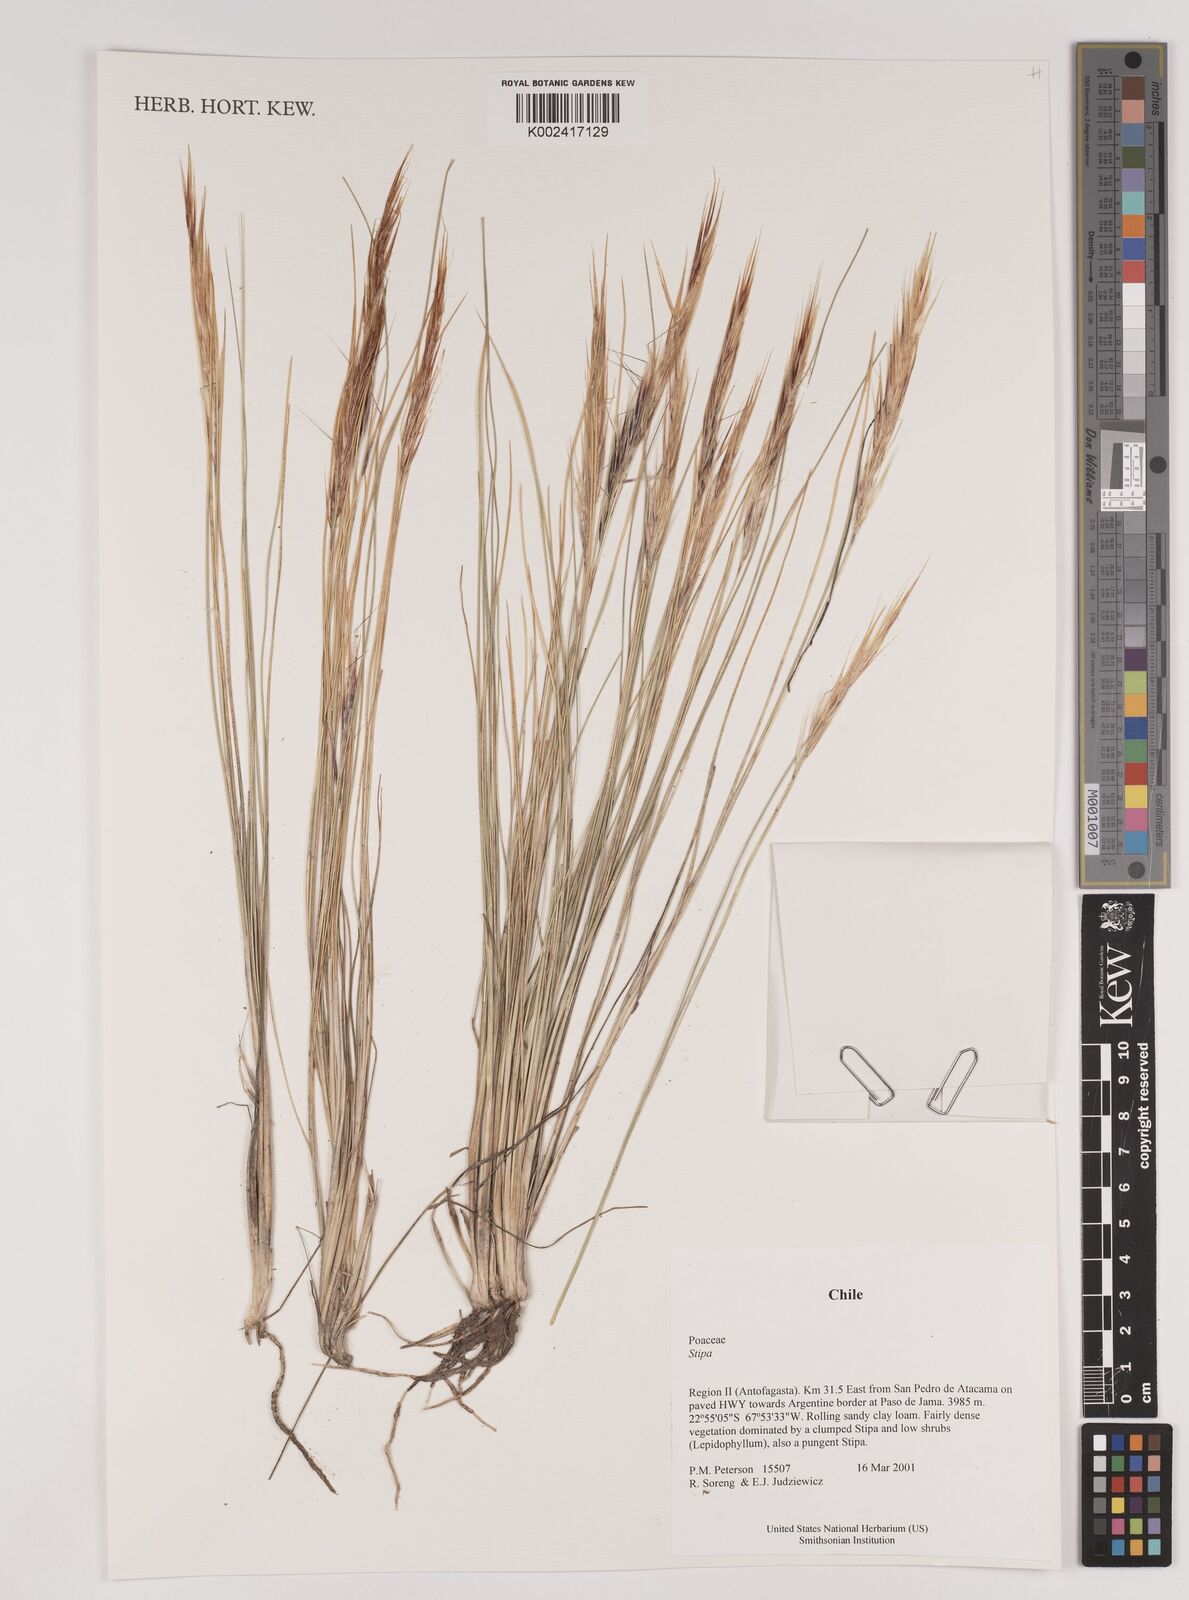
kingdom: Plantae
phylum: Tracheophyta
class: Liliopsida
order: Poales
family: Poaceae
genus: Stipa
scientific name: Stipa
